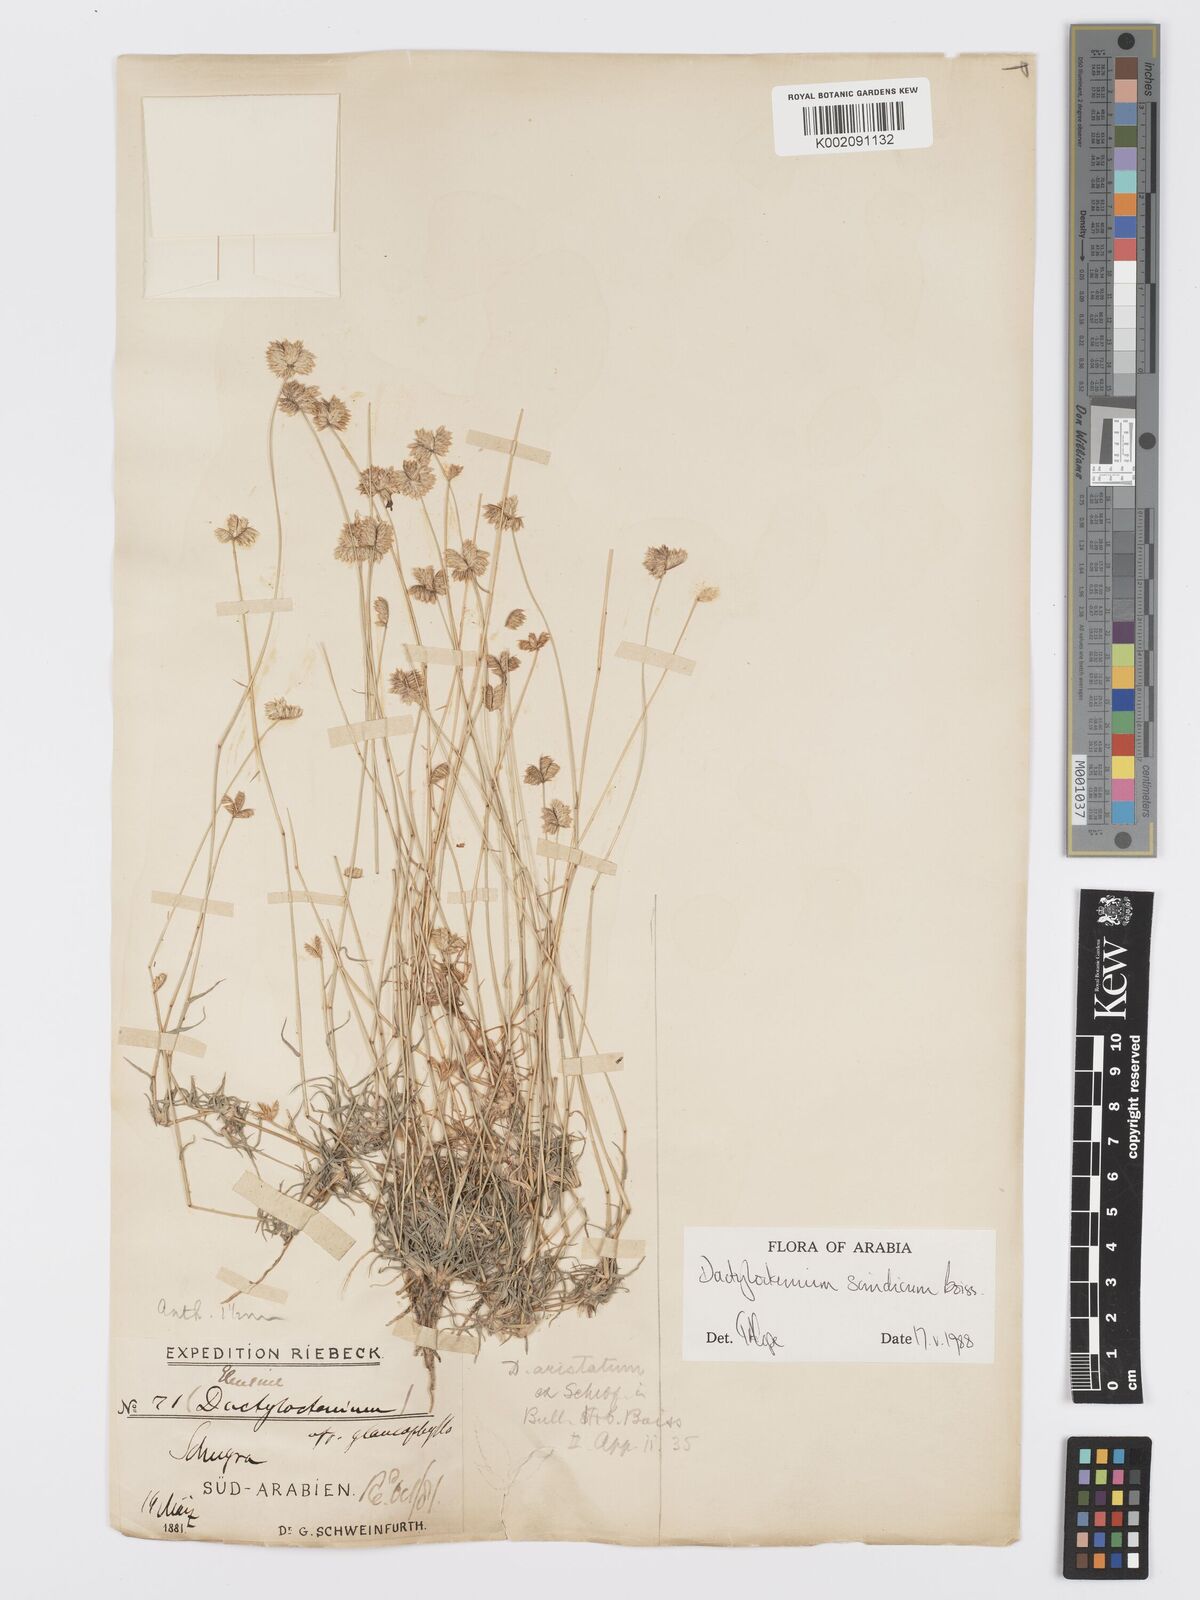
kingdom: Plantae
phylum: Tracheophyta
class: Liliopsida
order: Poales
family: Poaceae
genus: Dactyloctenium
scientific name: Dactyloctenium scindicum
